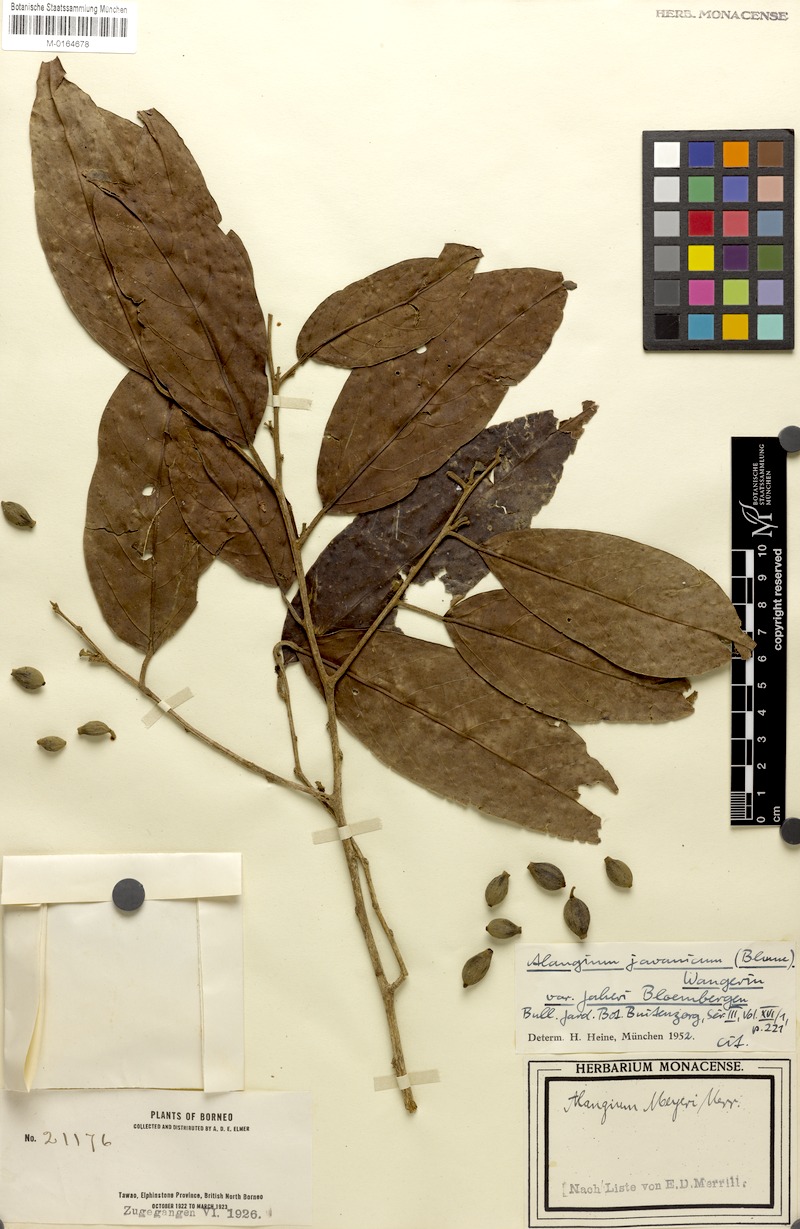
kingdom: Plantae
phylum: Tracheophyta
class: Magnoliopsida
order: Cornales
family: Cornaceae
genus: Alangium
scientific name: Alangium minahassicum
